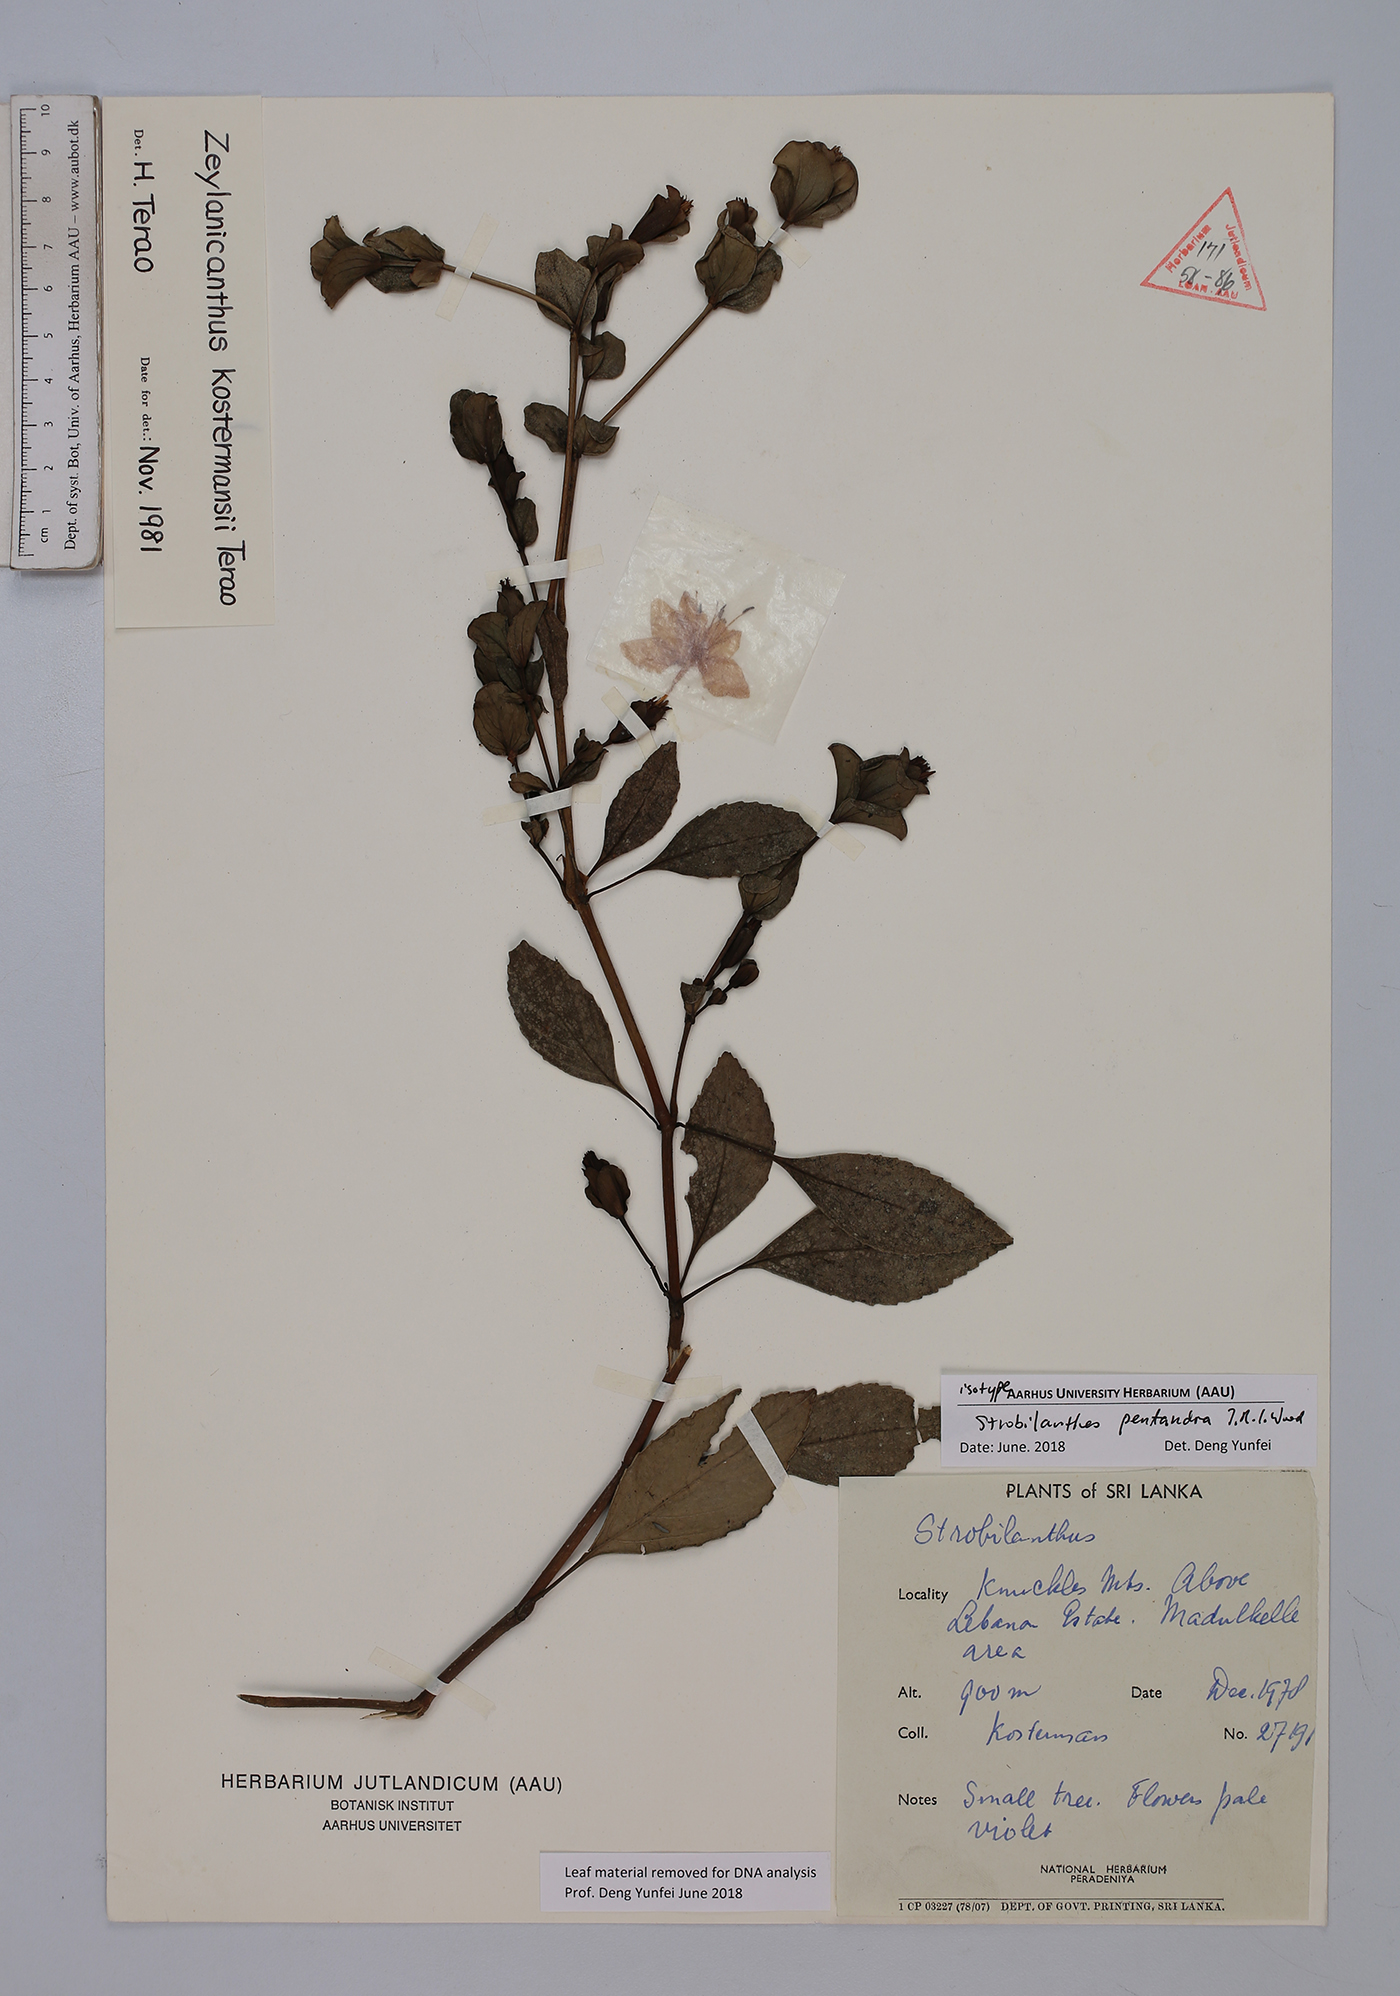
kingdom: Plantae
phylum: Tracheophyta
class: Magnoliopsida
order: Lamiales
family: Acanthaceae
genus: Strobilanthes
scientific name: Strobilanthes pentandra
